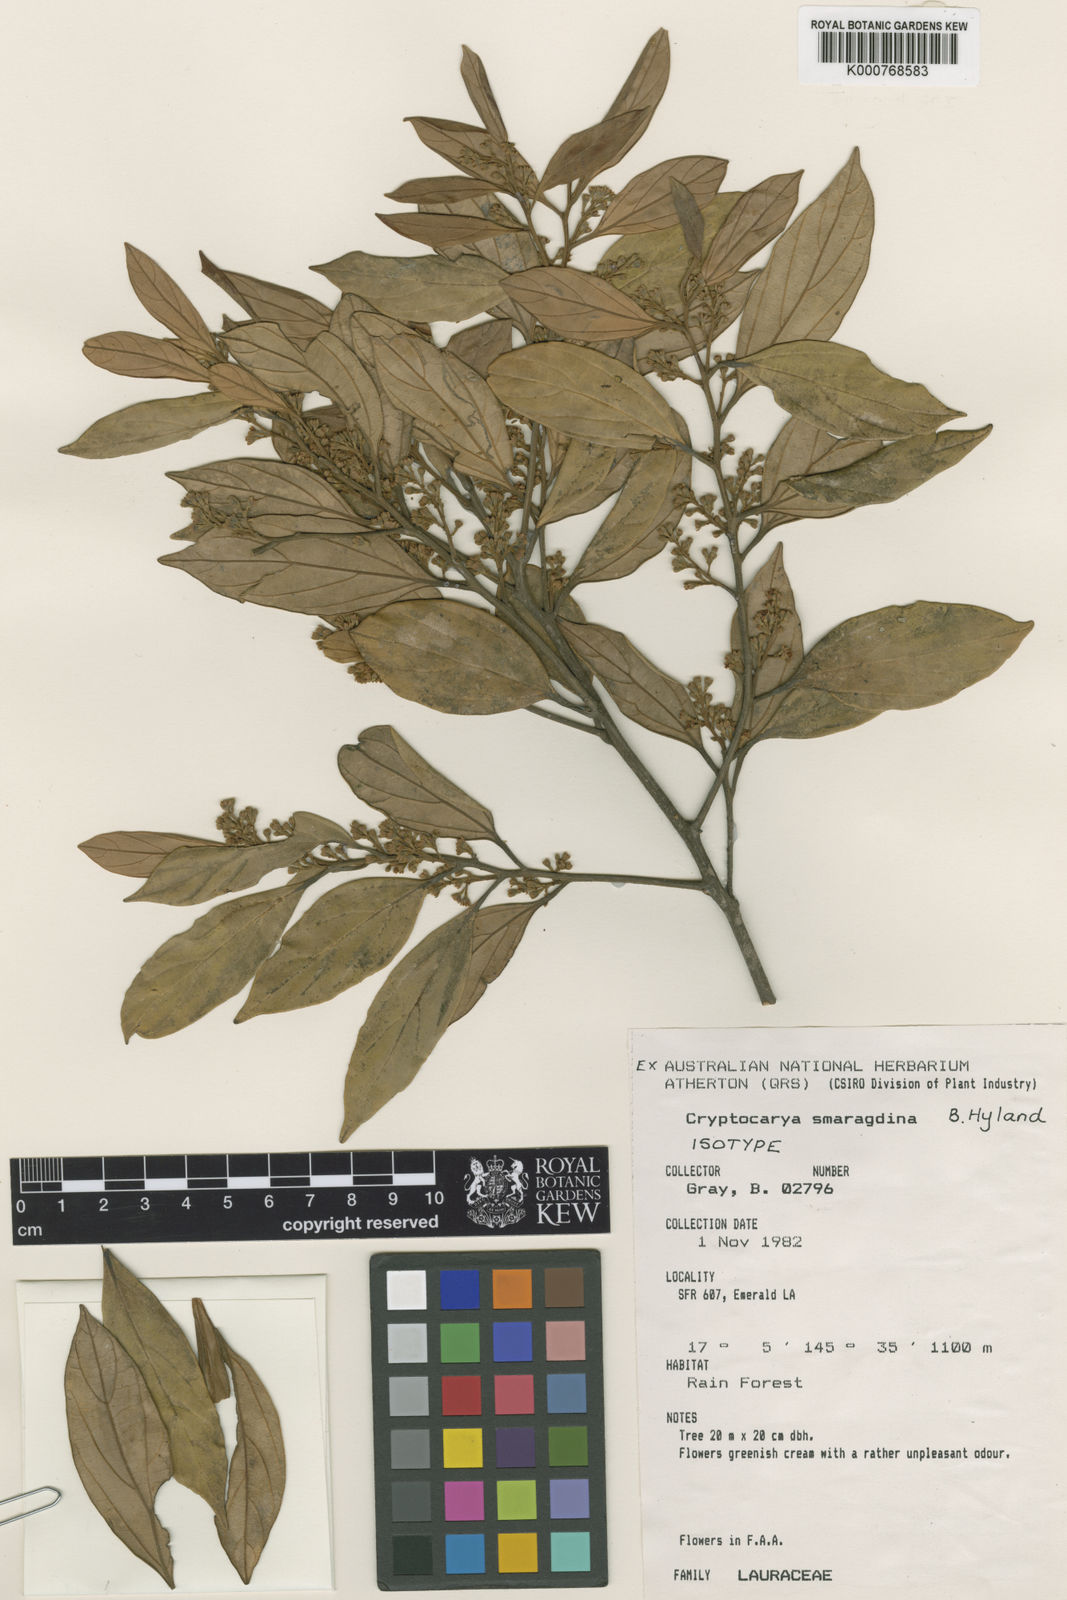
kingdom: Plantae
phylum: Tracheophyta
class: Magnoliopsida
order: Laurales
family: Lauraceae
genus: Cryptocarya
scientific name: Cryptocarya smaragdina
